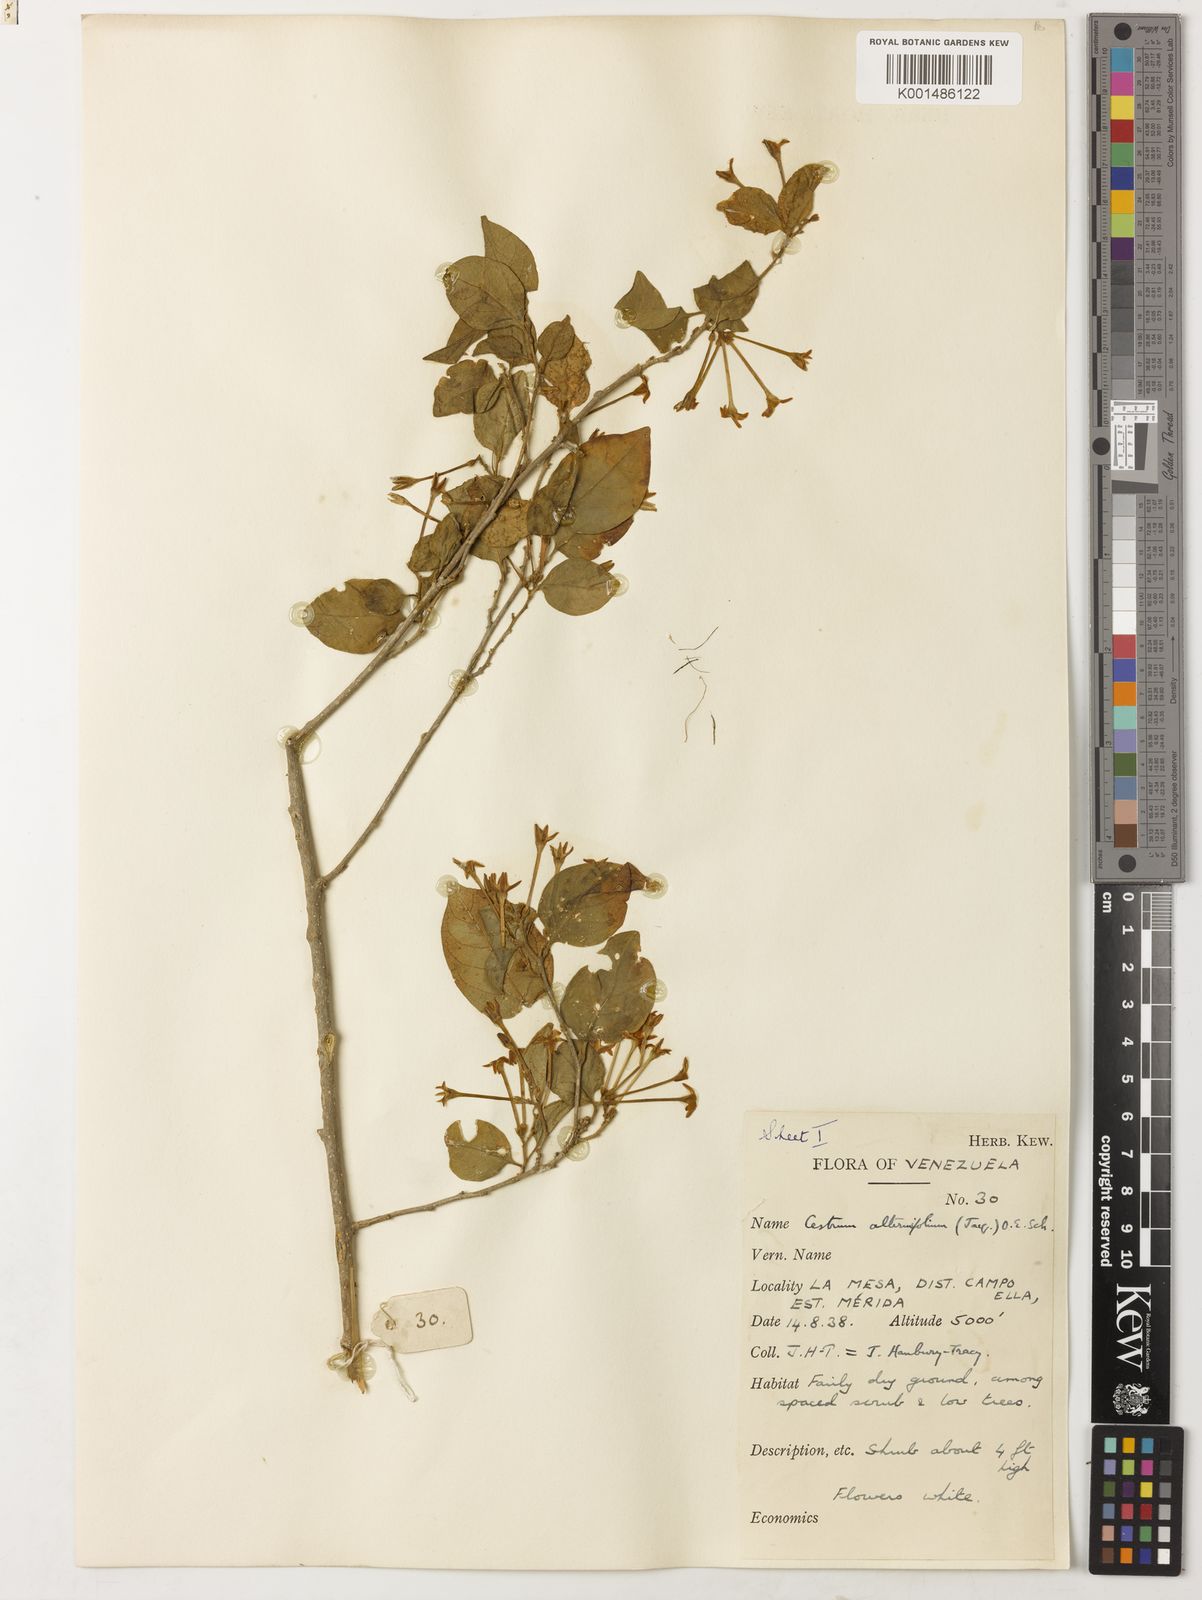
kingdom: Plantae
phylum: Tracheophyta
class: Magnoliopsida
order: Solanales
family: Solanaceae
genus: Cestrum
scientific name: Cestrum alternifolium
